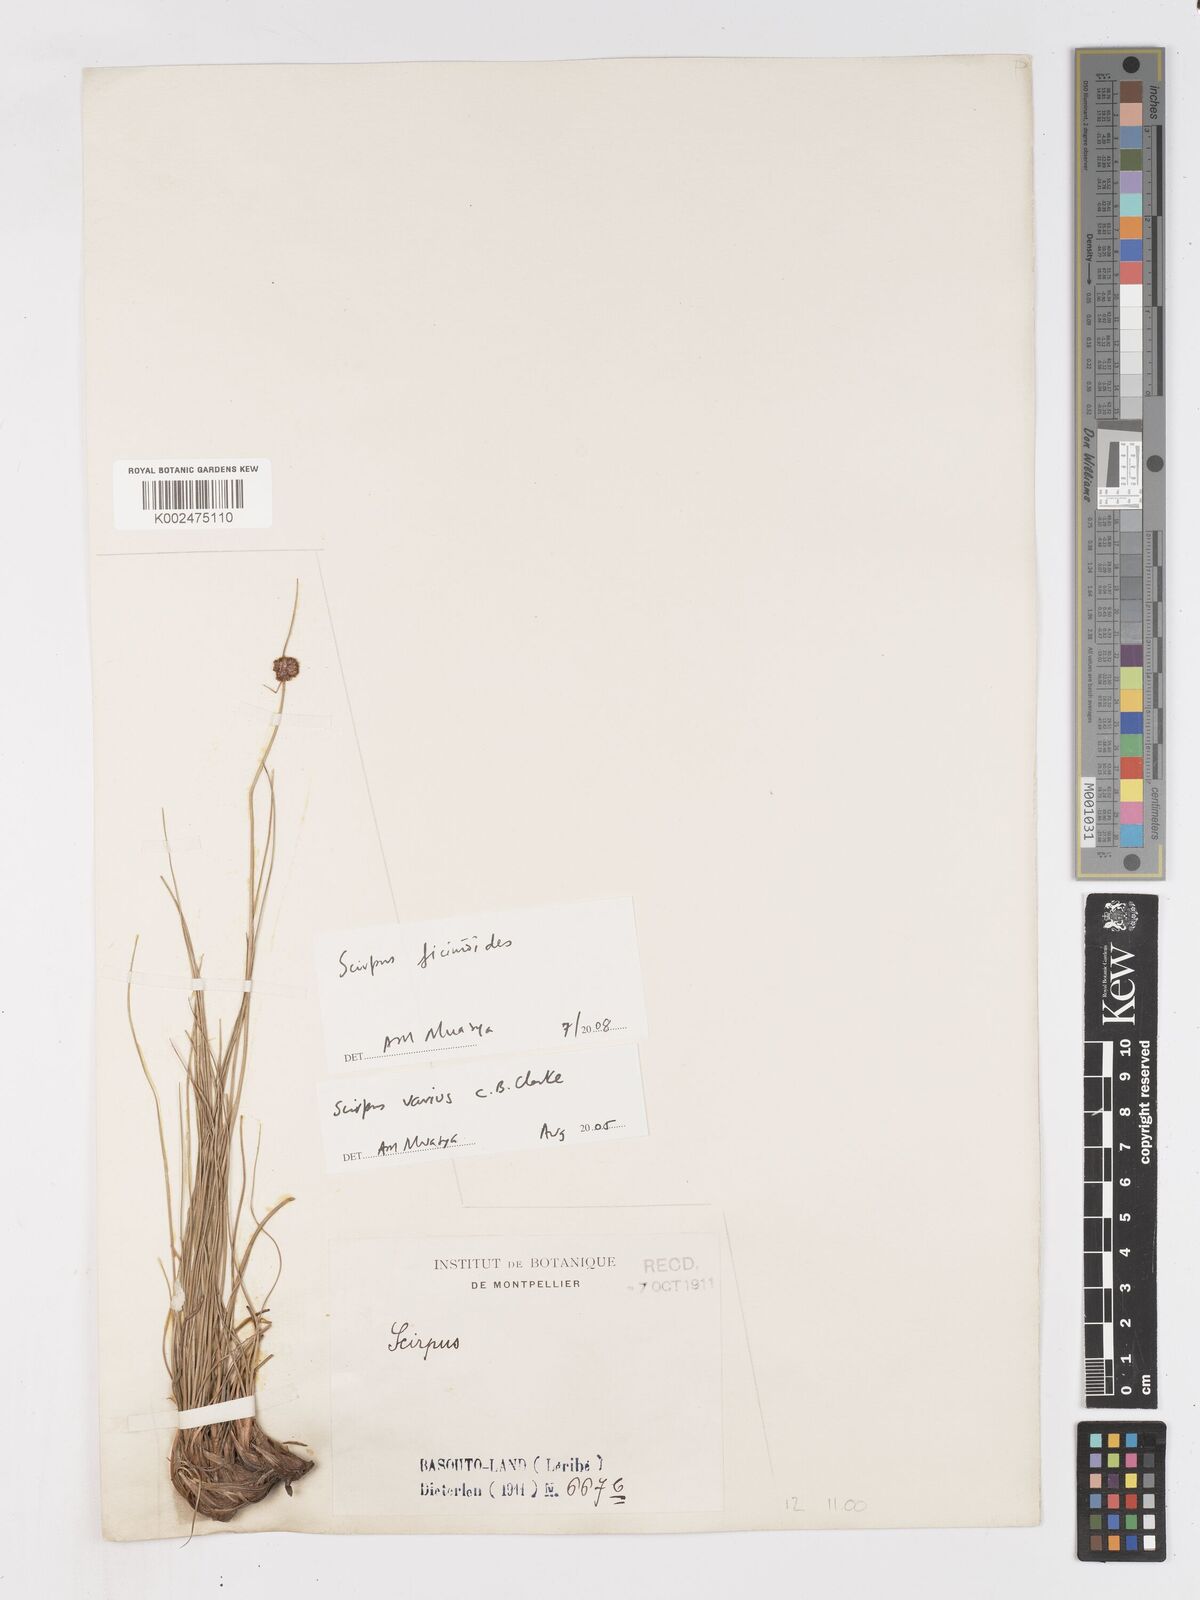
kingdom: Plantae
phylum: Tracheophyta
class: Liliopsida
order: Poales
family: Cyperaceae
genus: Ficinia
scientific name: Ficinia
